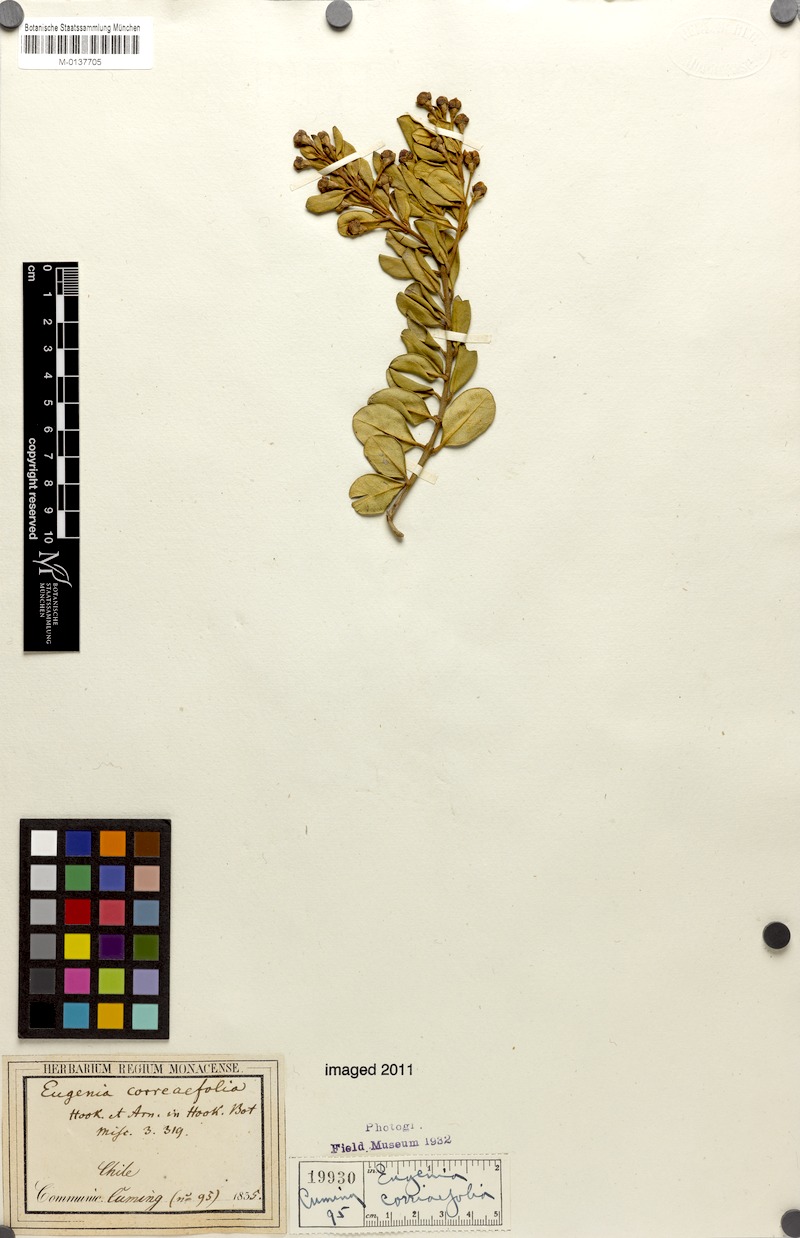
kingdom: Plantae
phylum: Tracheophyta
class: Magnoliopsida
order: Myrtales
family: Myrtaceae
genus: Myrceugenia
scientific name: Myrceugenia correifolia
